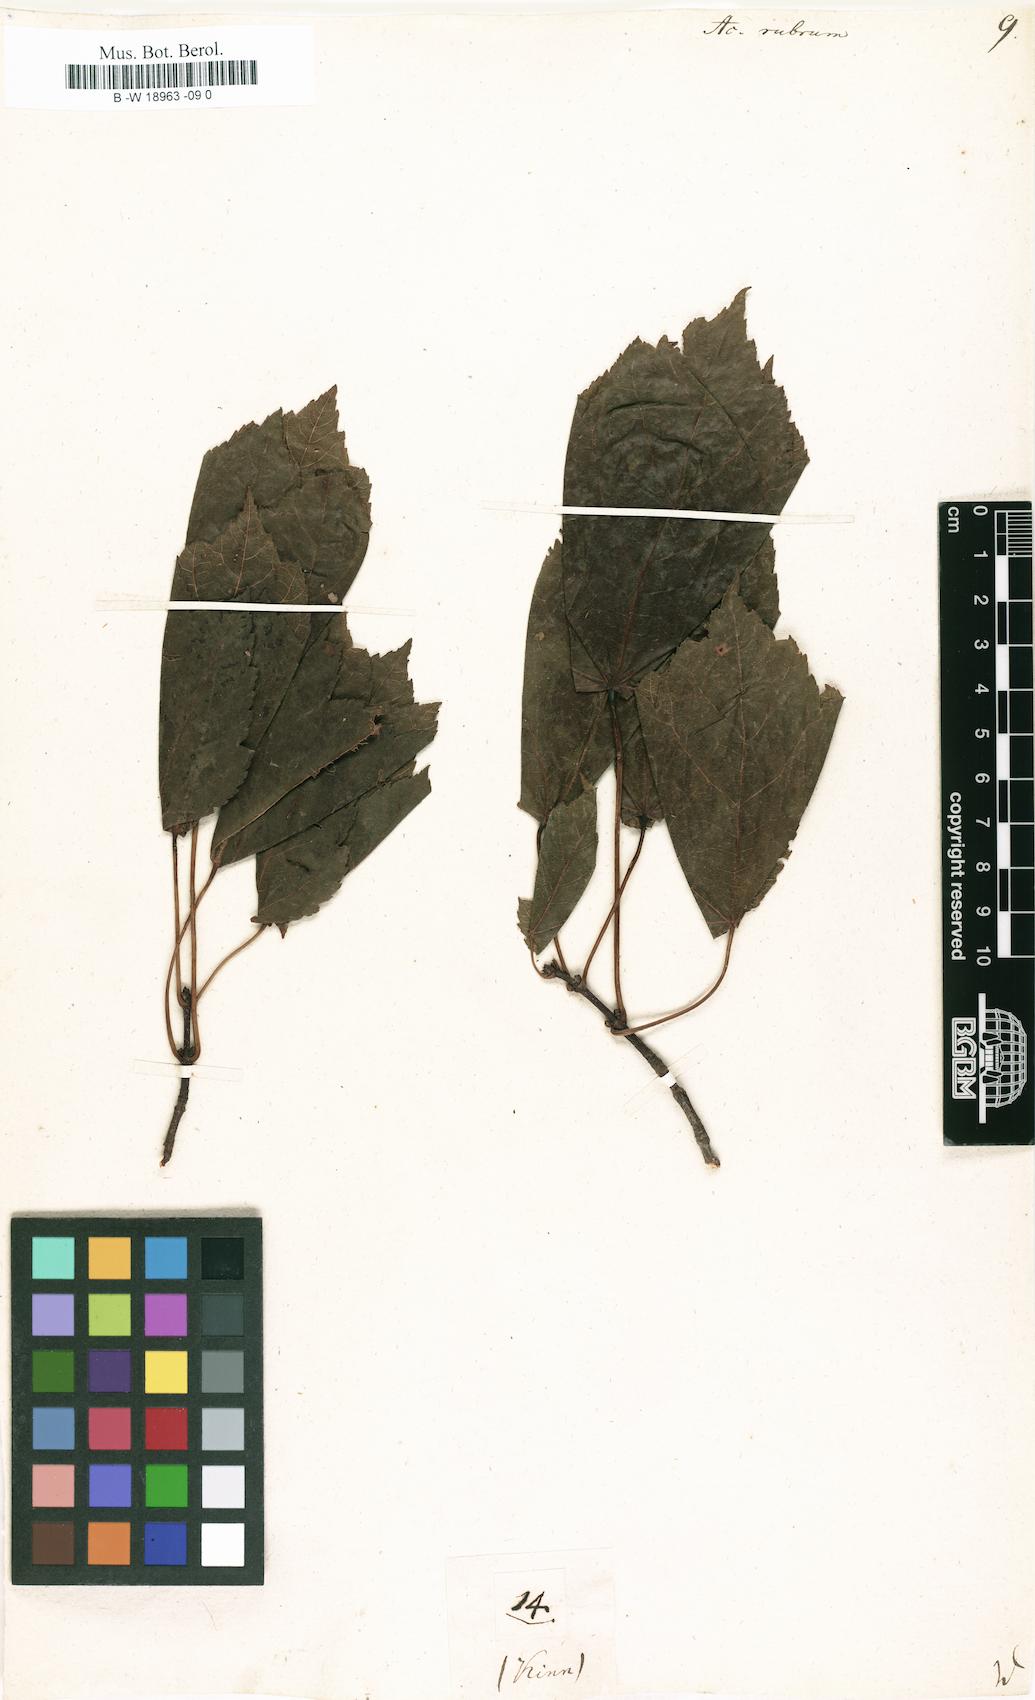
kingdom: Plantae
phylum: Tracheophyta
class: Magnoliopsida
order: Sapindales
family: Sapindaceae
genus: Acer
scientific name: Acer rubrum
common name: Red maple
